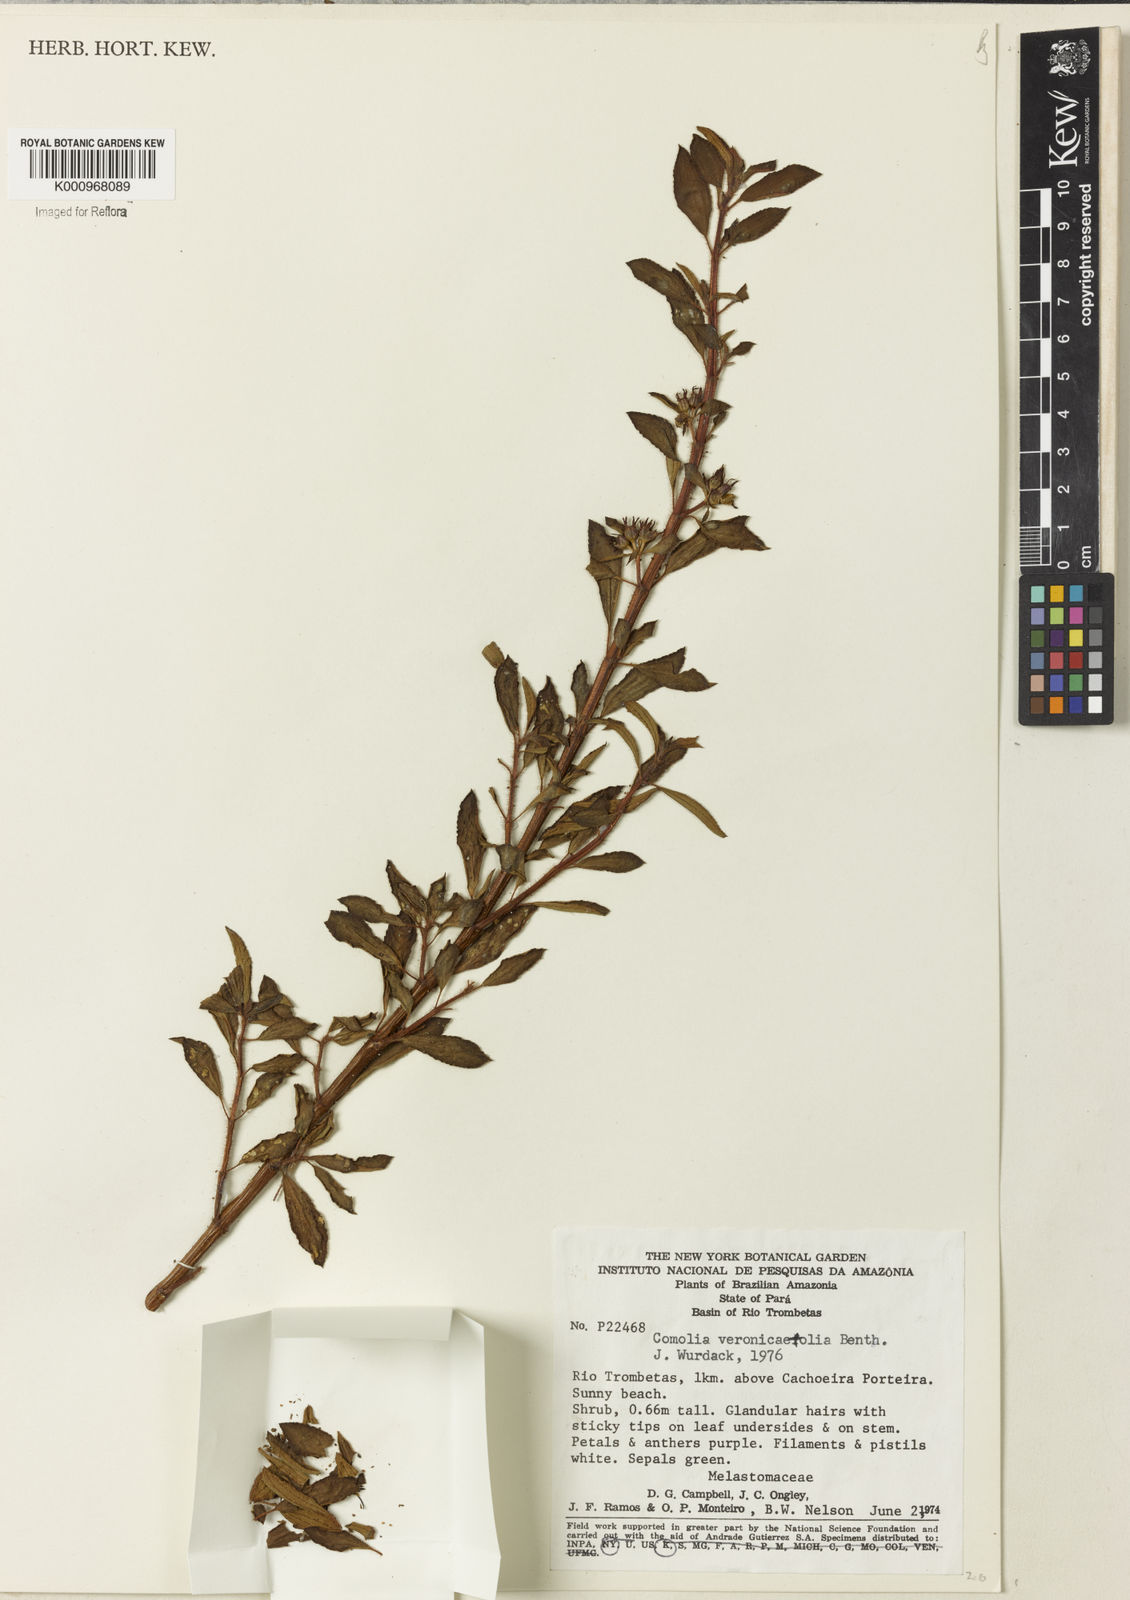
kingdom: Plantae
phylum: Tracheophyta
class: Magnoliopsida
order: Myrtales
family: Melastomataceae
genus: Comolia
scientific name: Comolia villosa
